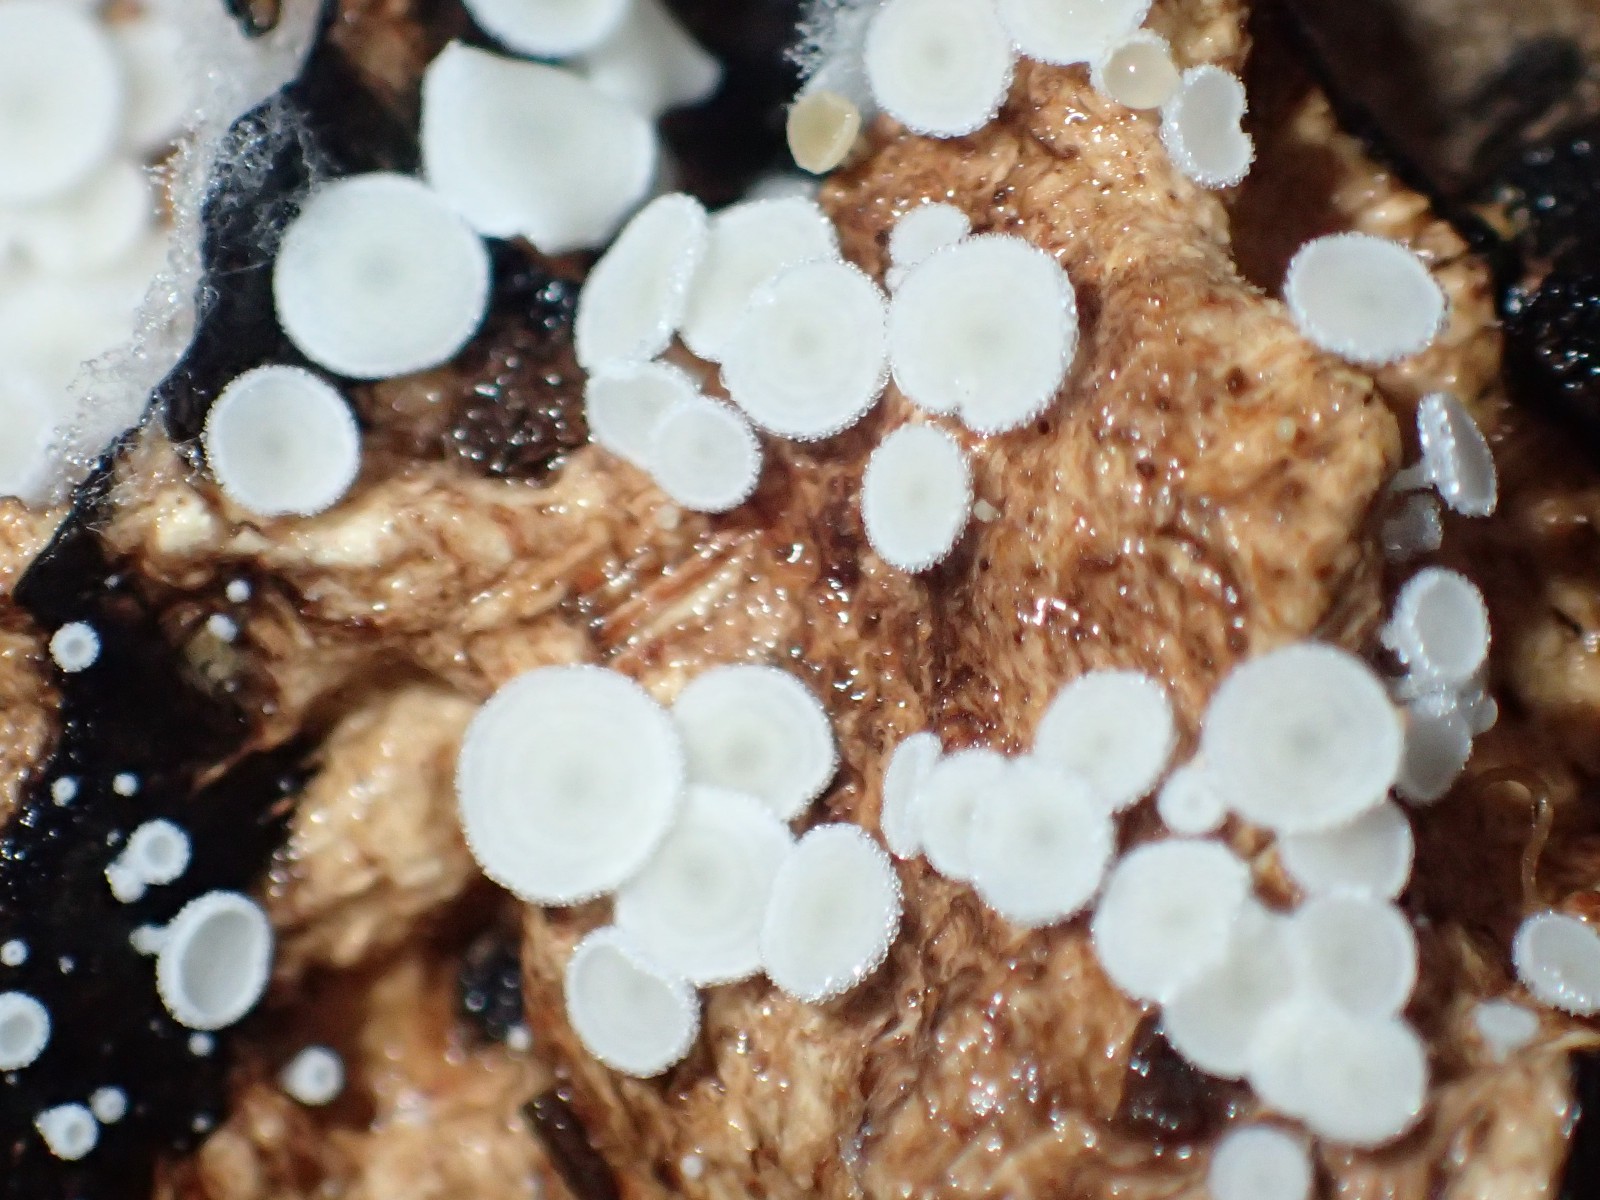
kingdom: Fungi
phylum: Ascomycota
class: Leotiomycetes
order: Helotiales
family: Lachnaceae
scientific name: Lachnaceae
